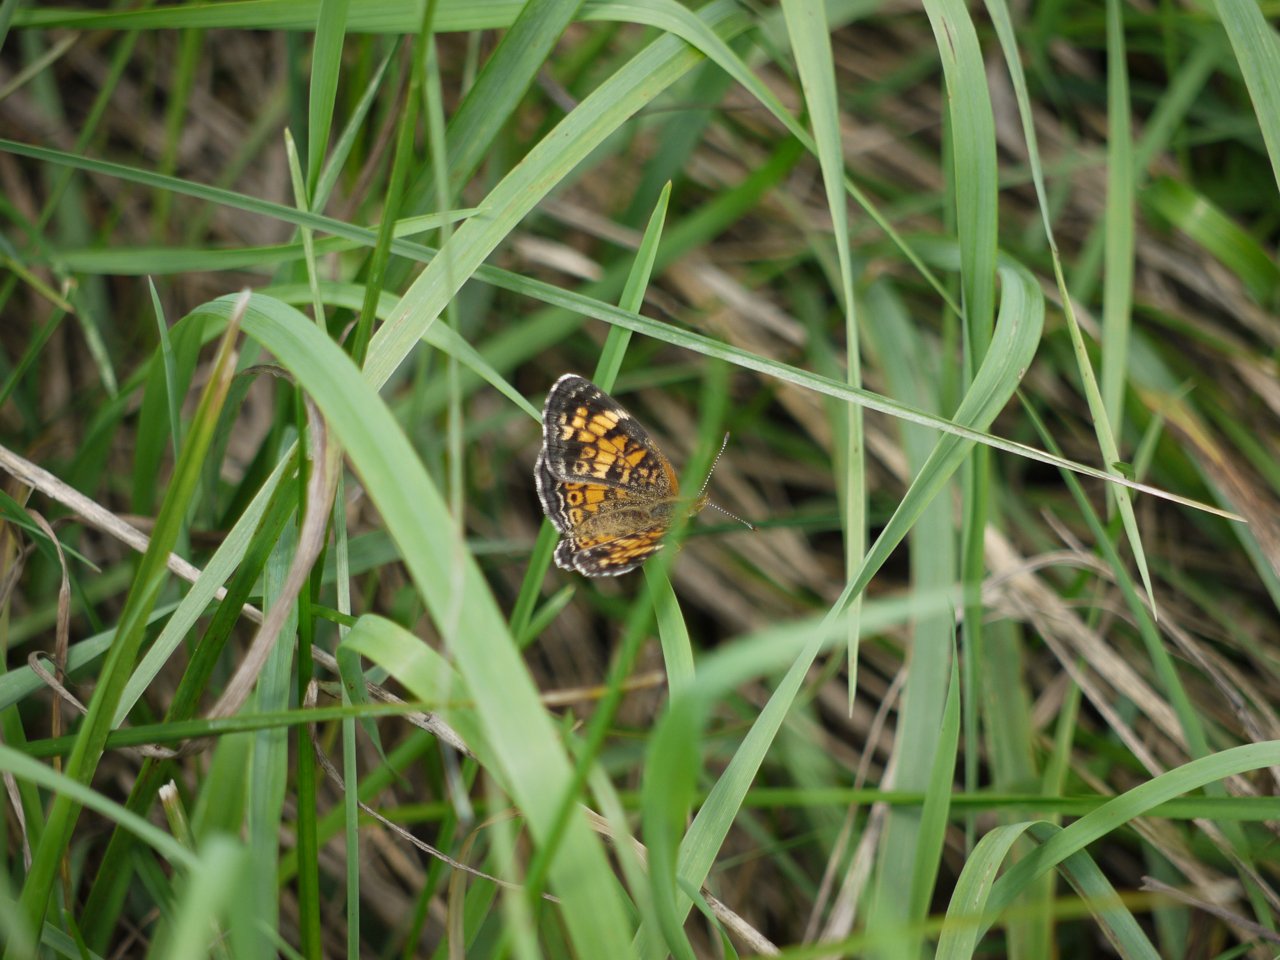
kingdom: Animalia
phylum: Arthropoda
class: Insecta
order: Lepidoptera
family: Nymphalidae
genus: Phyciodes
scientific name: Phyciodes tharos
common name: Pearl Crescent
